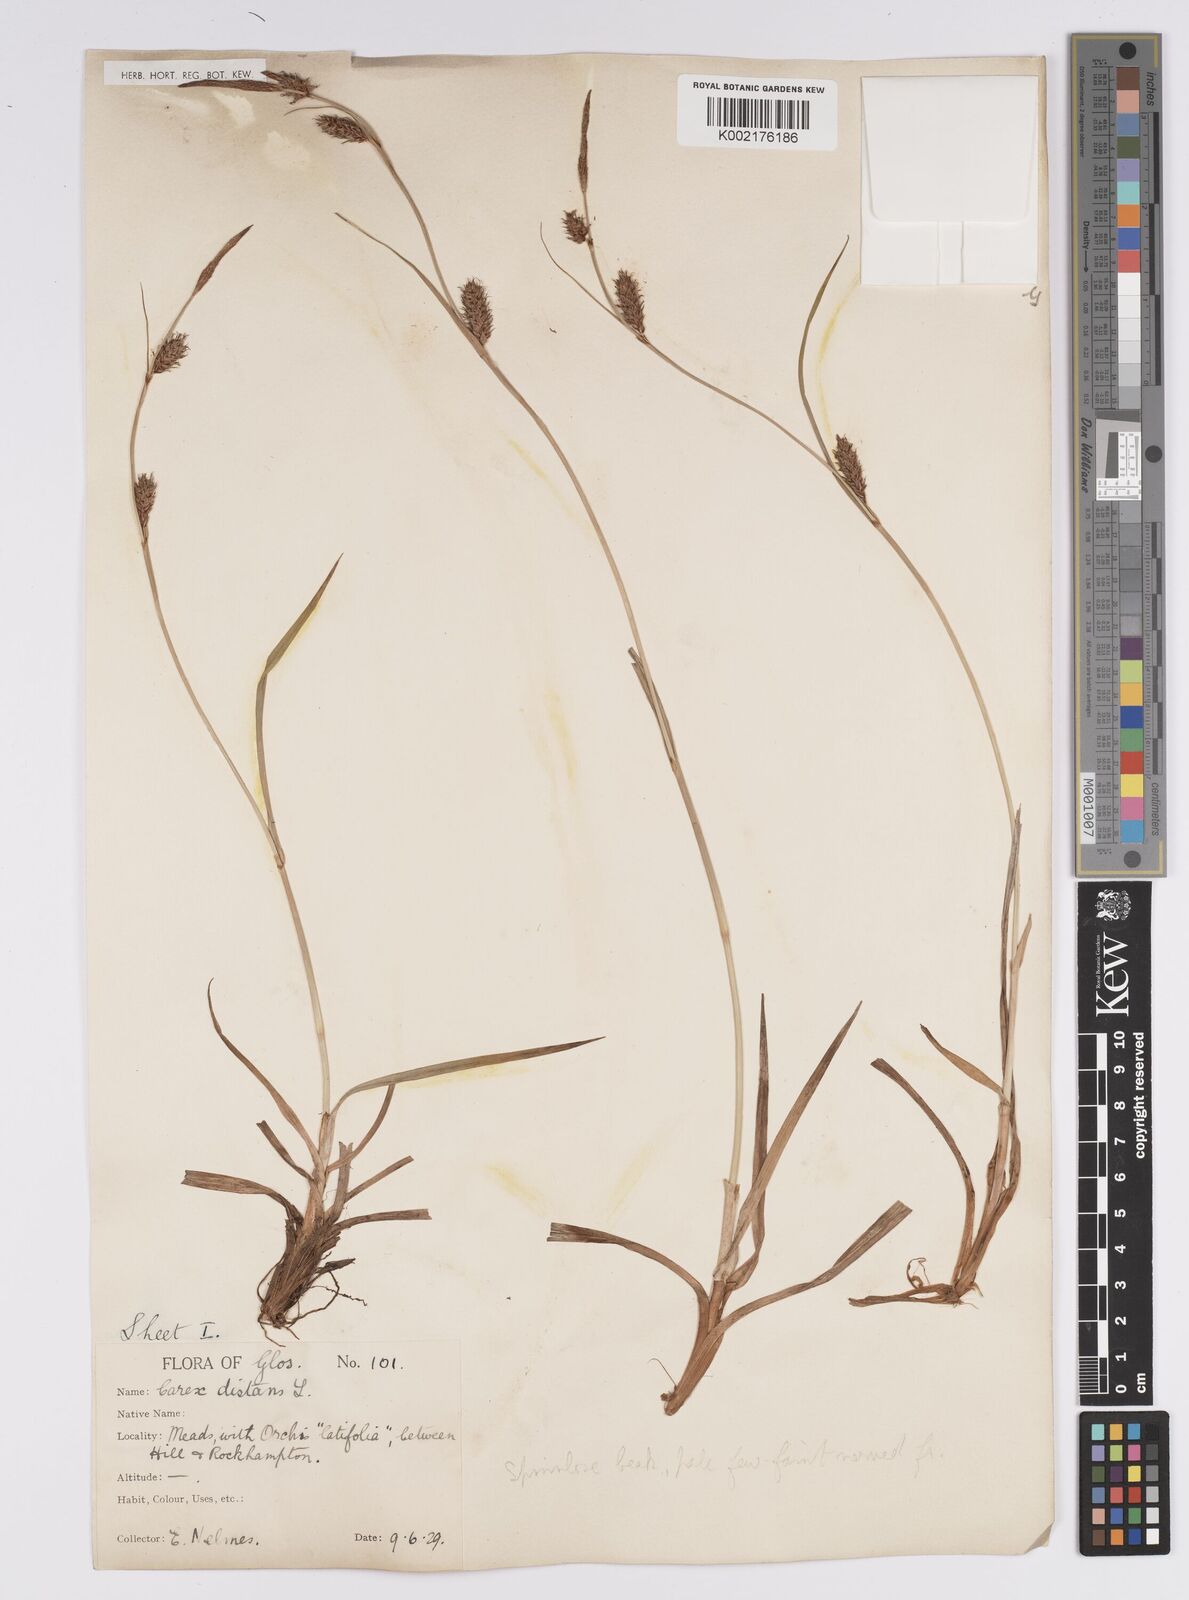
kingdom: Plantae
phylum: Tracheophyta
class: Liliopsida
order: Poales
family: Cyperaceae
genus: Carex
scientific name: Carex distans
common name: Distant sedge
